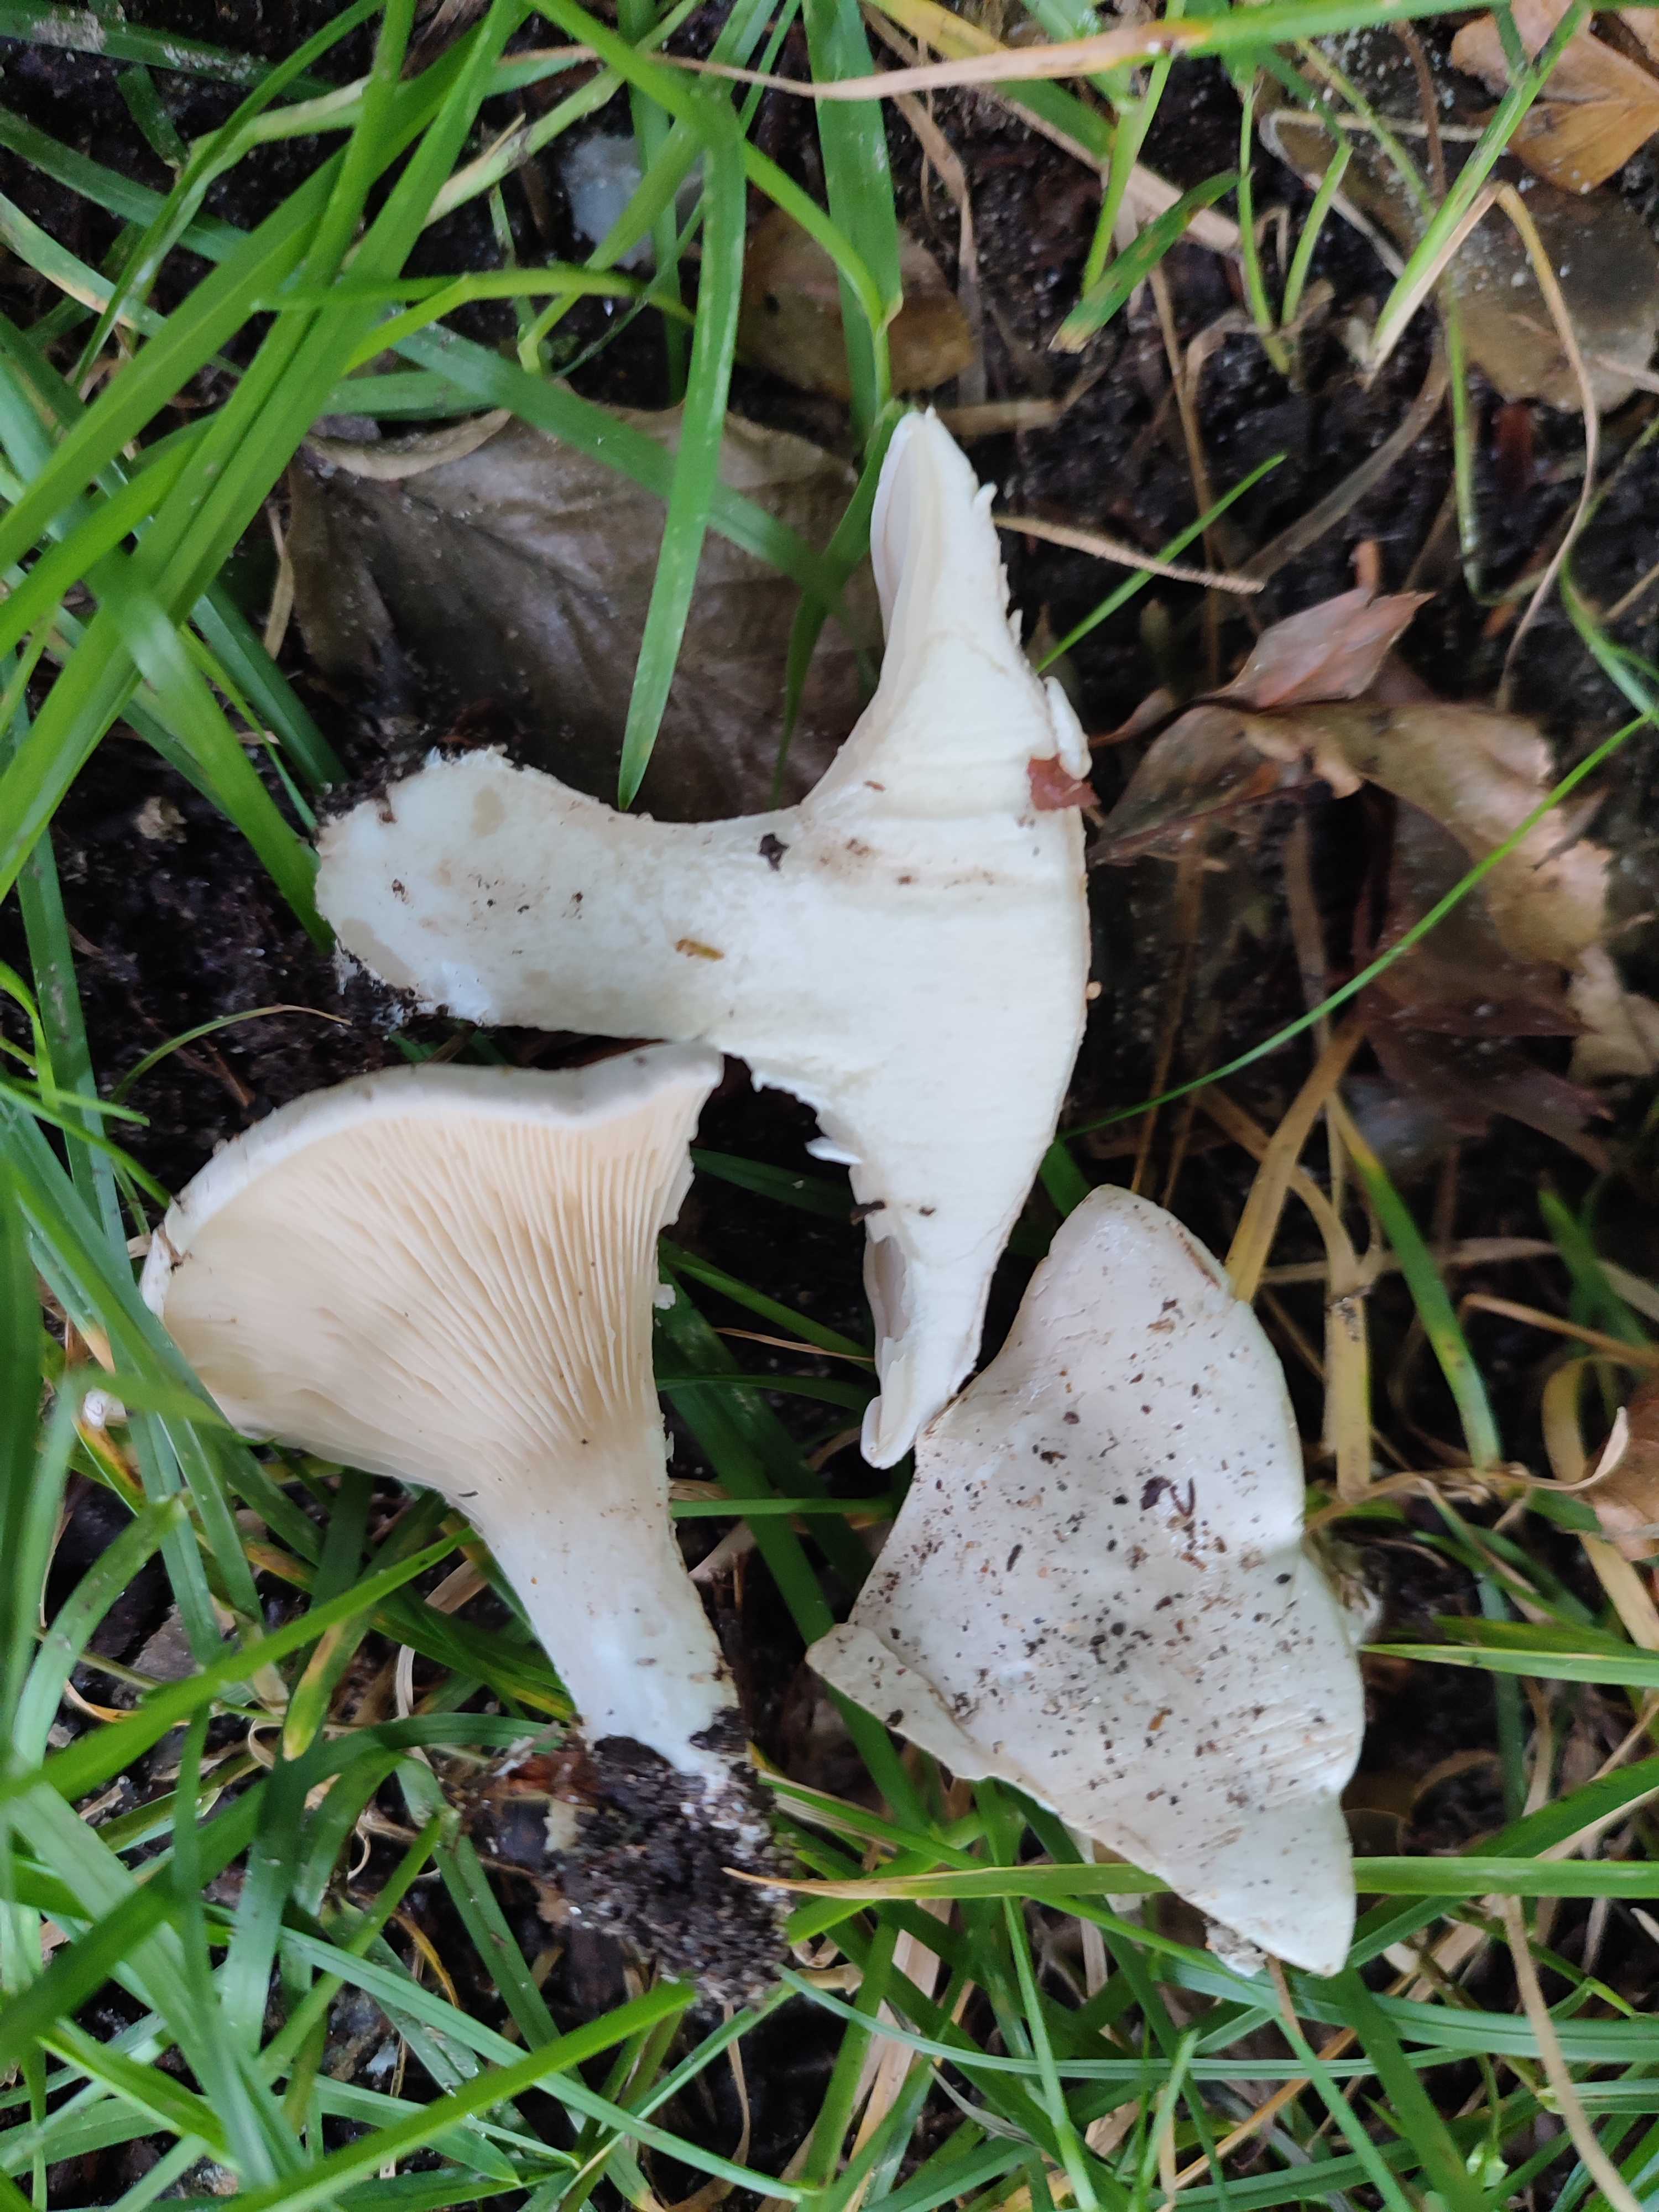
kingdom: Fungi
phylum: Basidiomycota
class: Agaricomycetes
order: Agaricales
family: Entolomataceae
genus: Clitopilus
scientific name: Clitopilus prunulus
